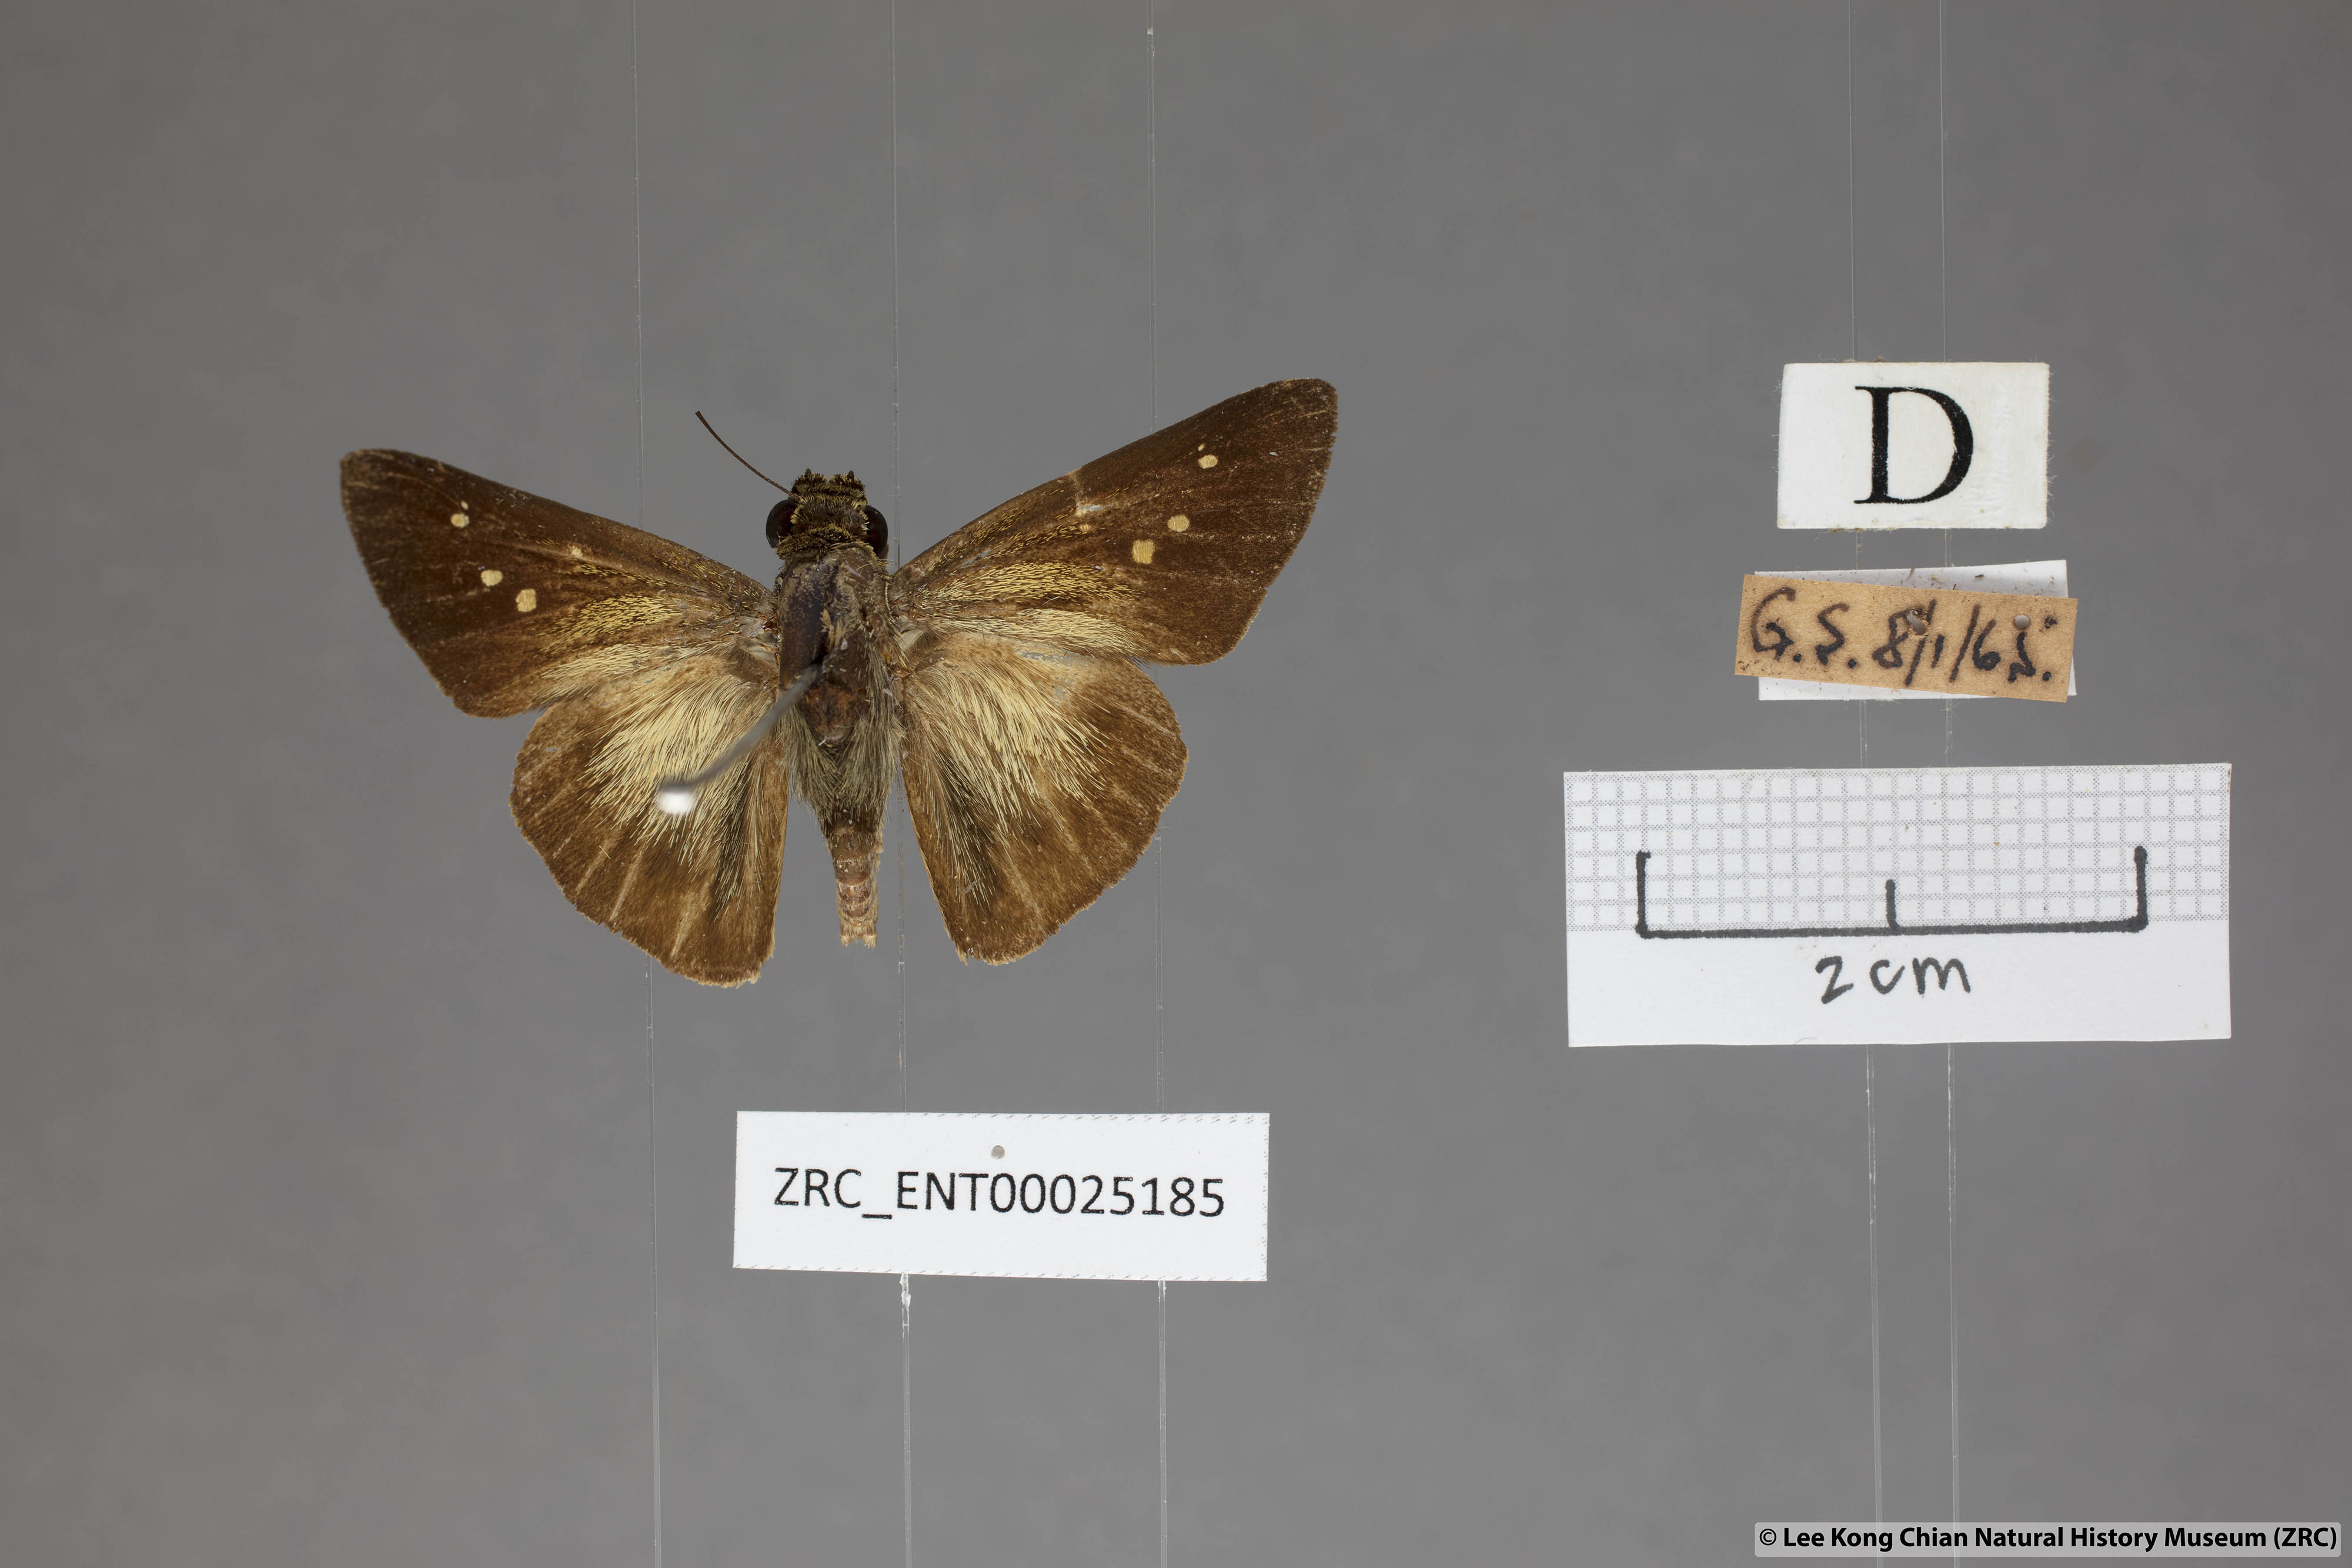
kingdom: Animalia
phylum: Arthropoda
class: Insecta
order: Lepidoptera
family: Hesperiidae
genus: Pithauria
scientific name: Pithauria stramineipennis
